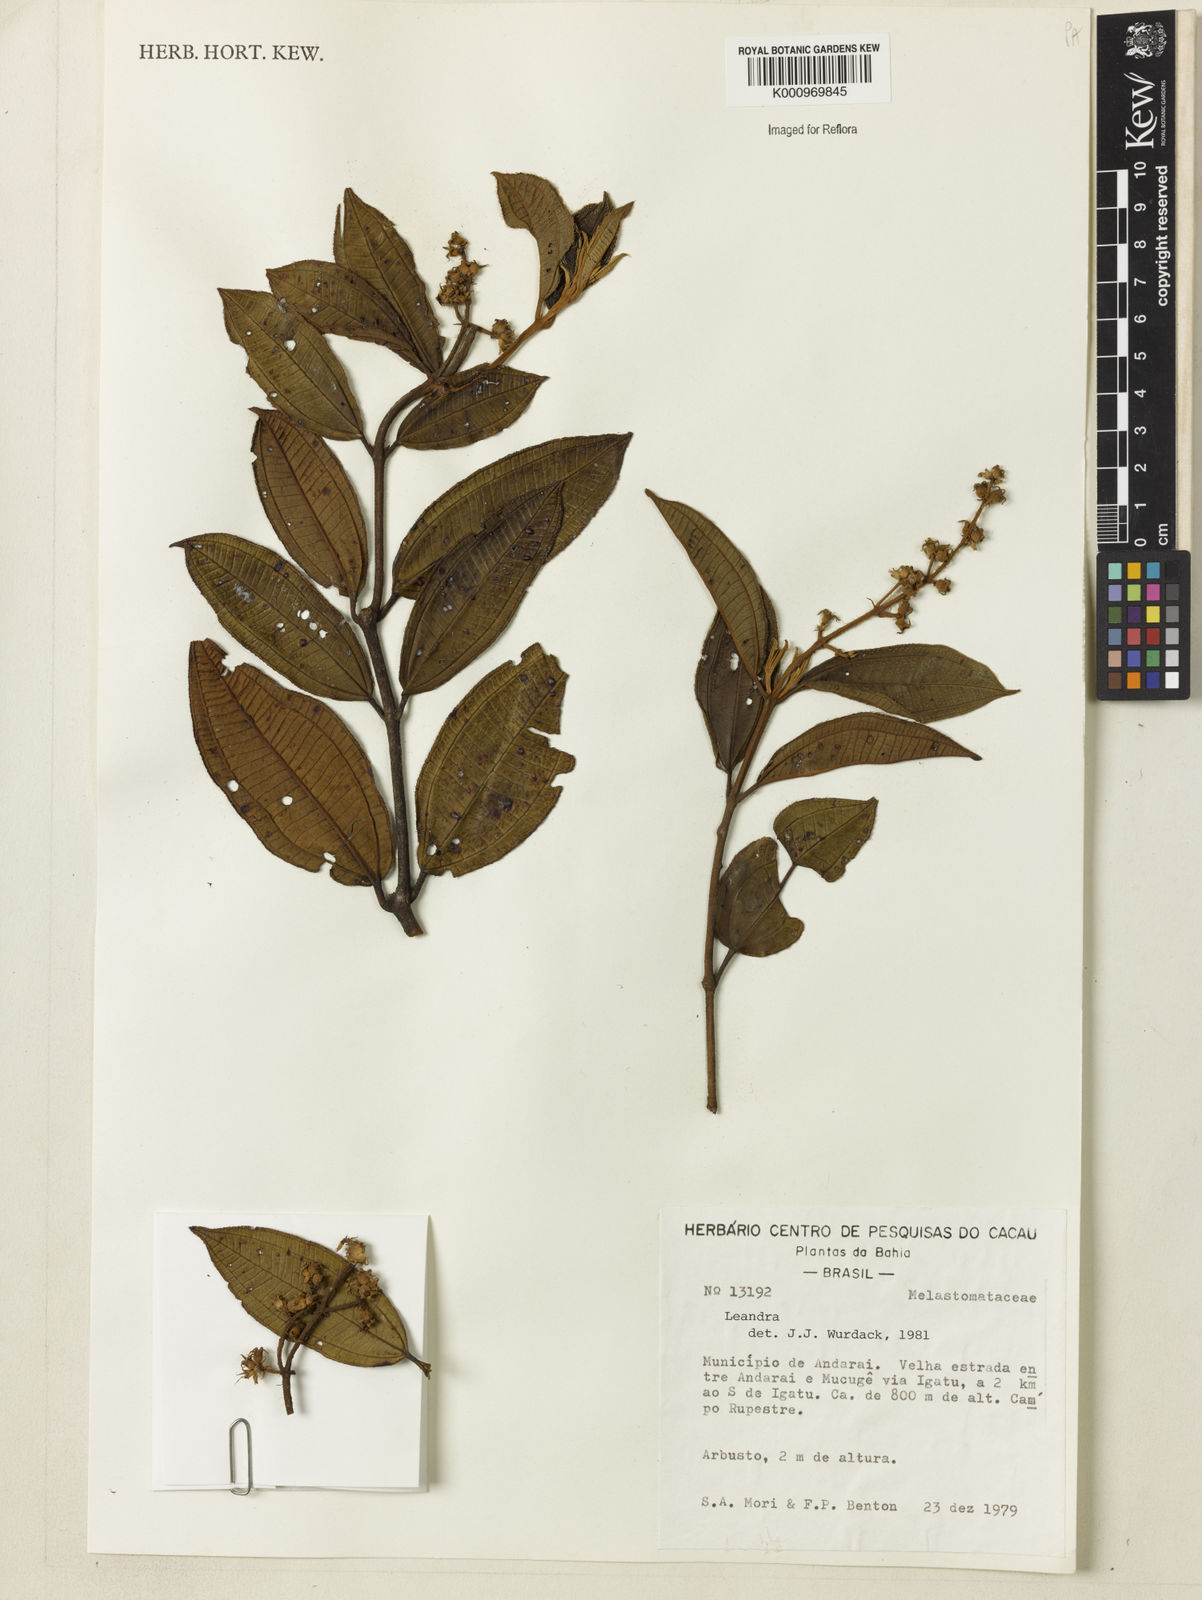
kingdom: Plantae
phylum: Tracheophyta
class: Magnoliopsida
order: Myrtales
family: Melastomataceae
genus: Miconia
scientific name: Miconia
